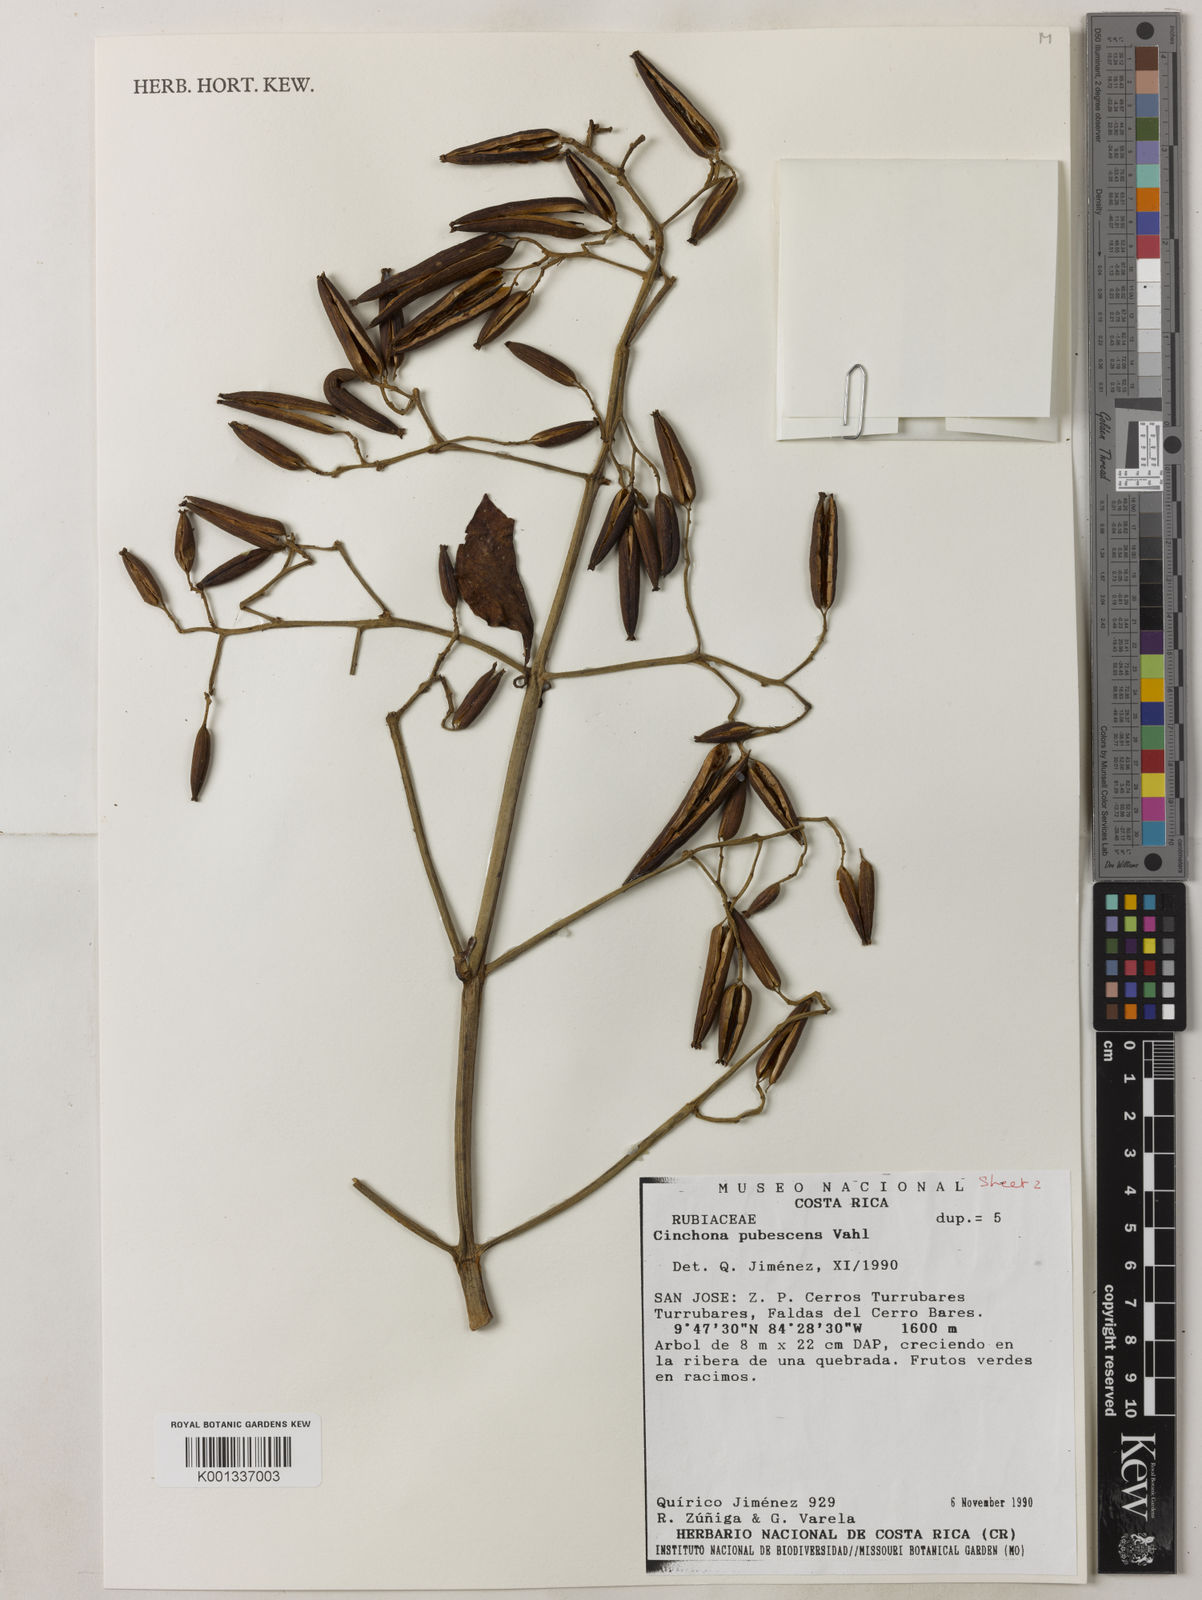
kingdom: Plantae
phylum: Tracheophyta
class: Magnoliopsida
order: Gentianales
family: Rubiaceae
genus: Cinchona
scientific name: Cinchona pubescens
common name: Quinine
